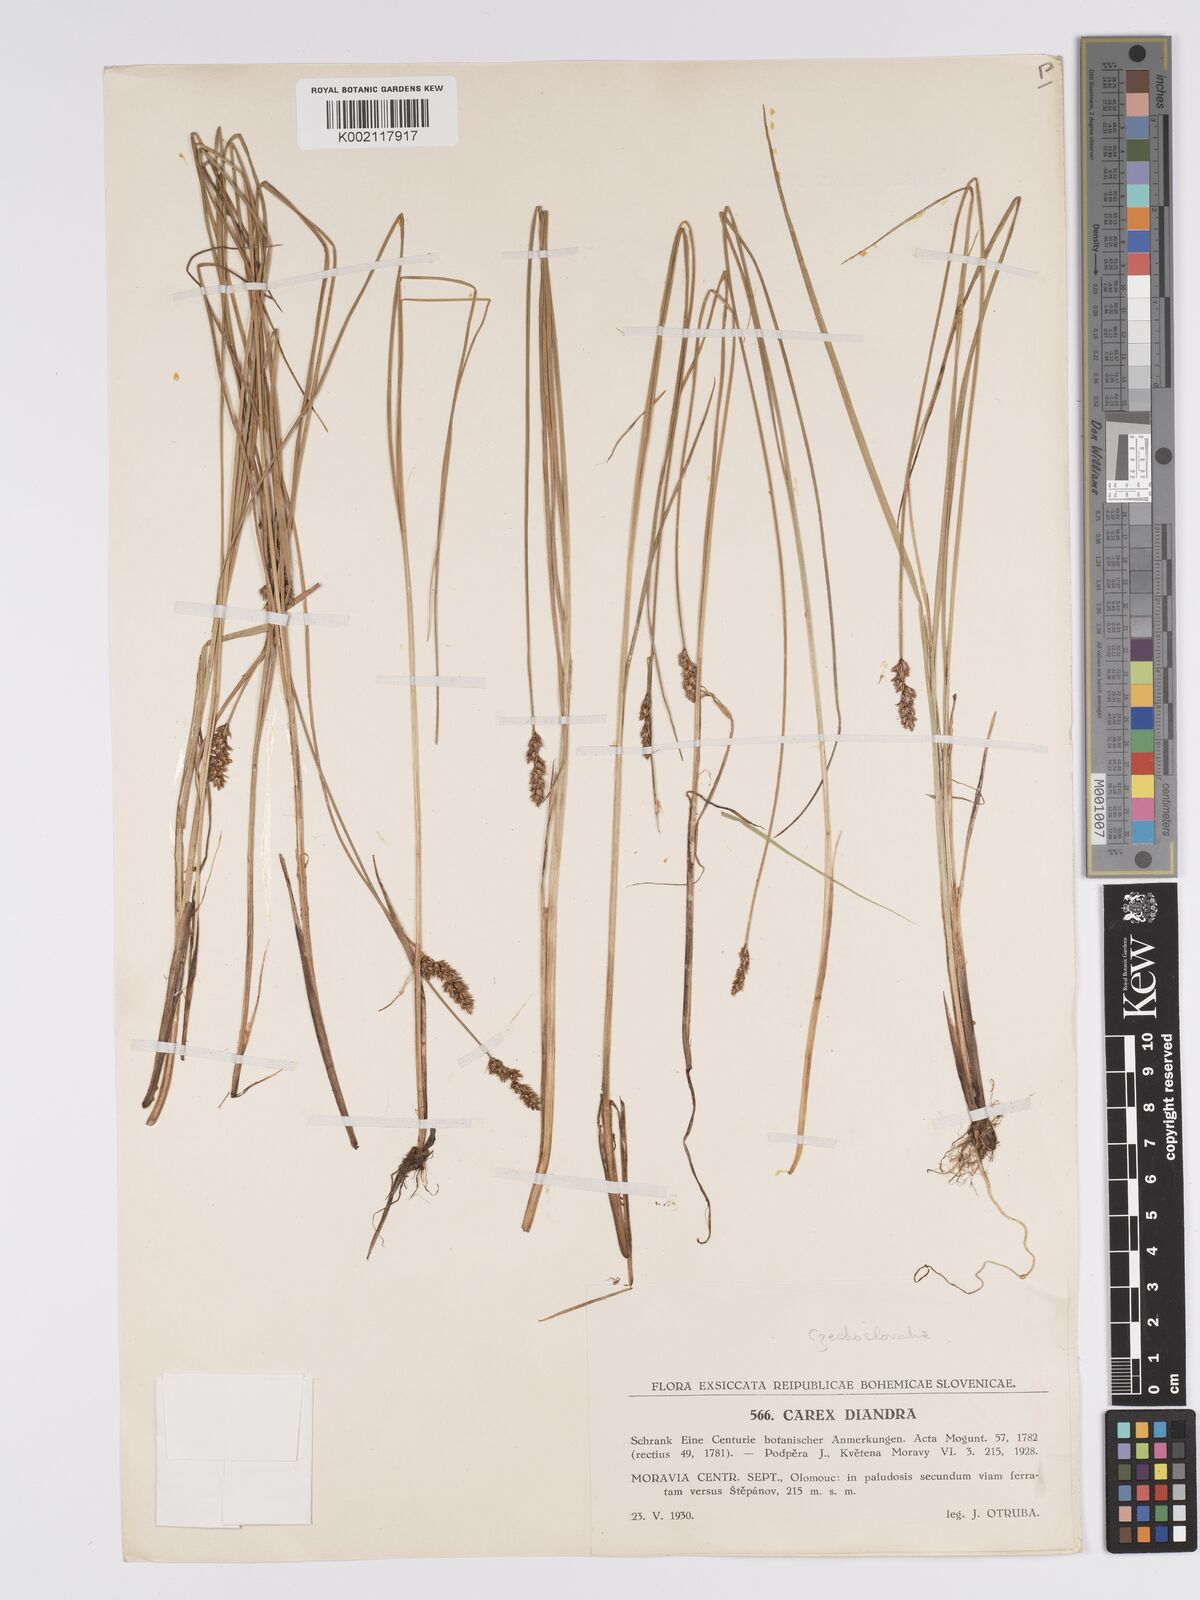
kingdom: Plantae
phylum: Tracheophyta
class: Liliopsida
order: Poales
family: Cyperaceae
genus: Carex
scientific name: Carex diandra
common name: Lesser tussock-sedge
